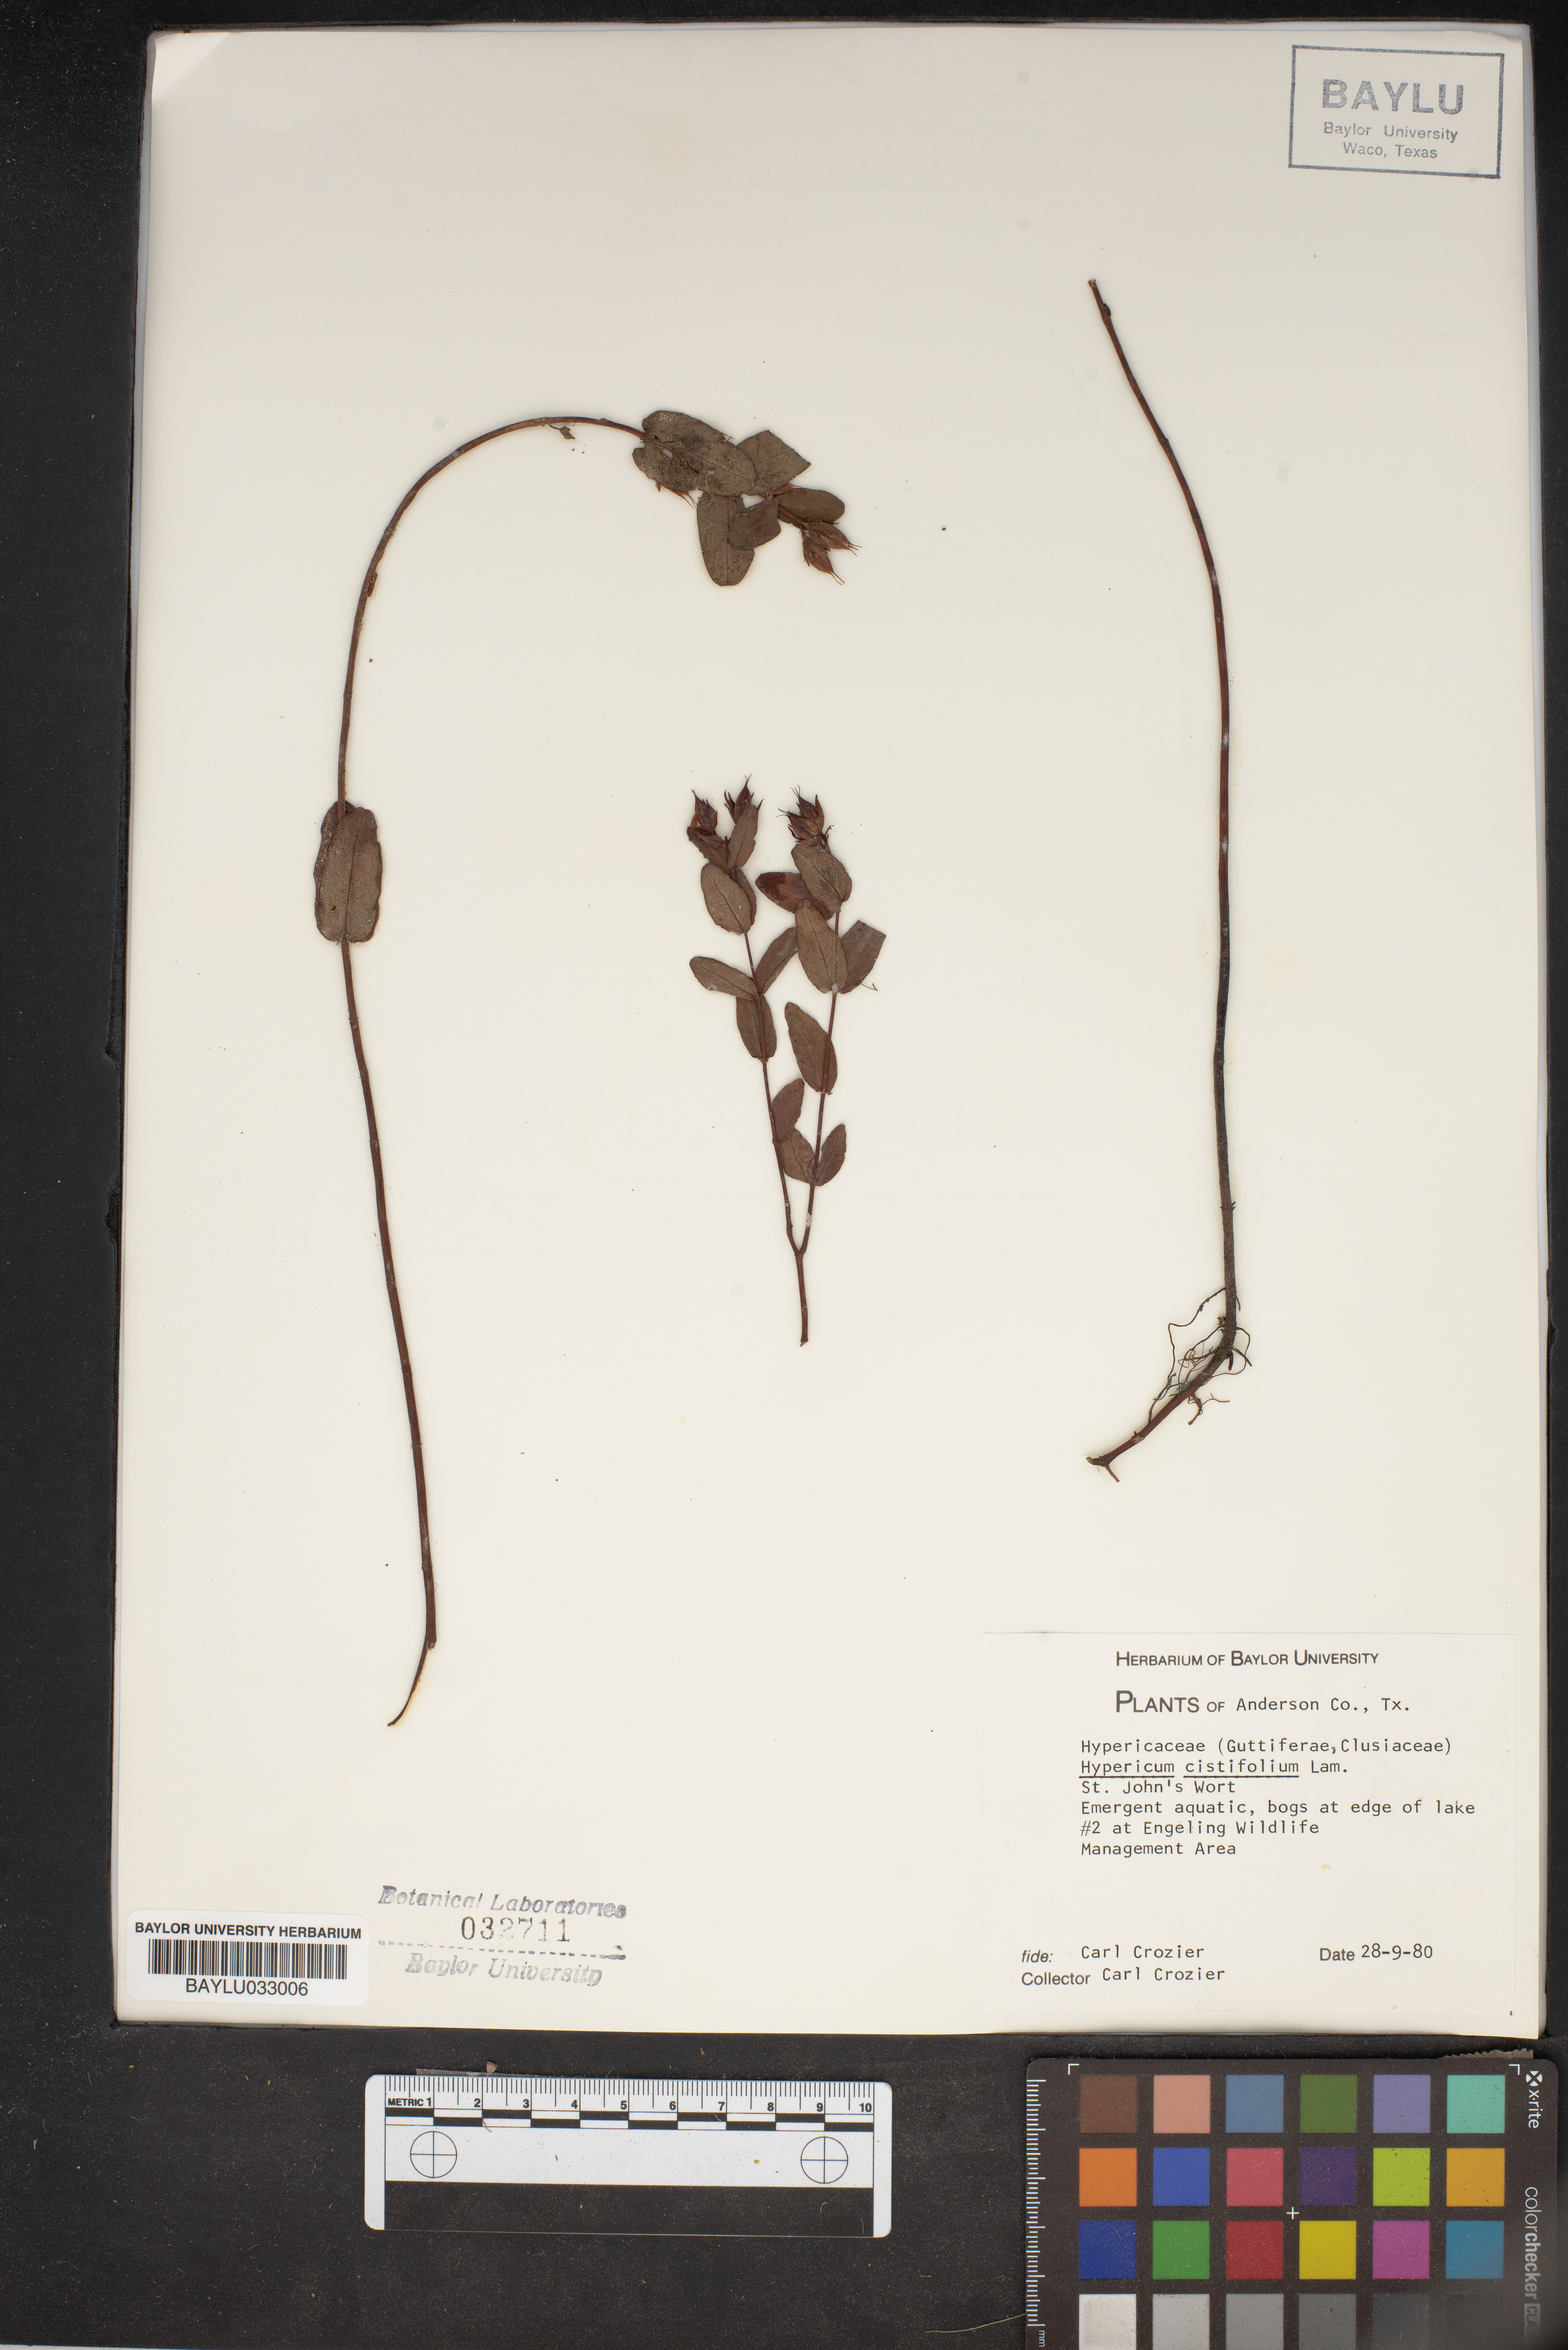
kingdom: Plantae
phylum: Tracheophyta
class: Magnoliopsida
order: Malpighiales
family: Hypericaceae
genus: Hypericum
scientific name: Hypericum cistifolium
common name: Round-pod st. john's-wort
